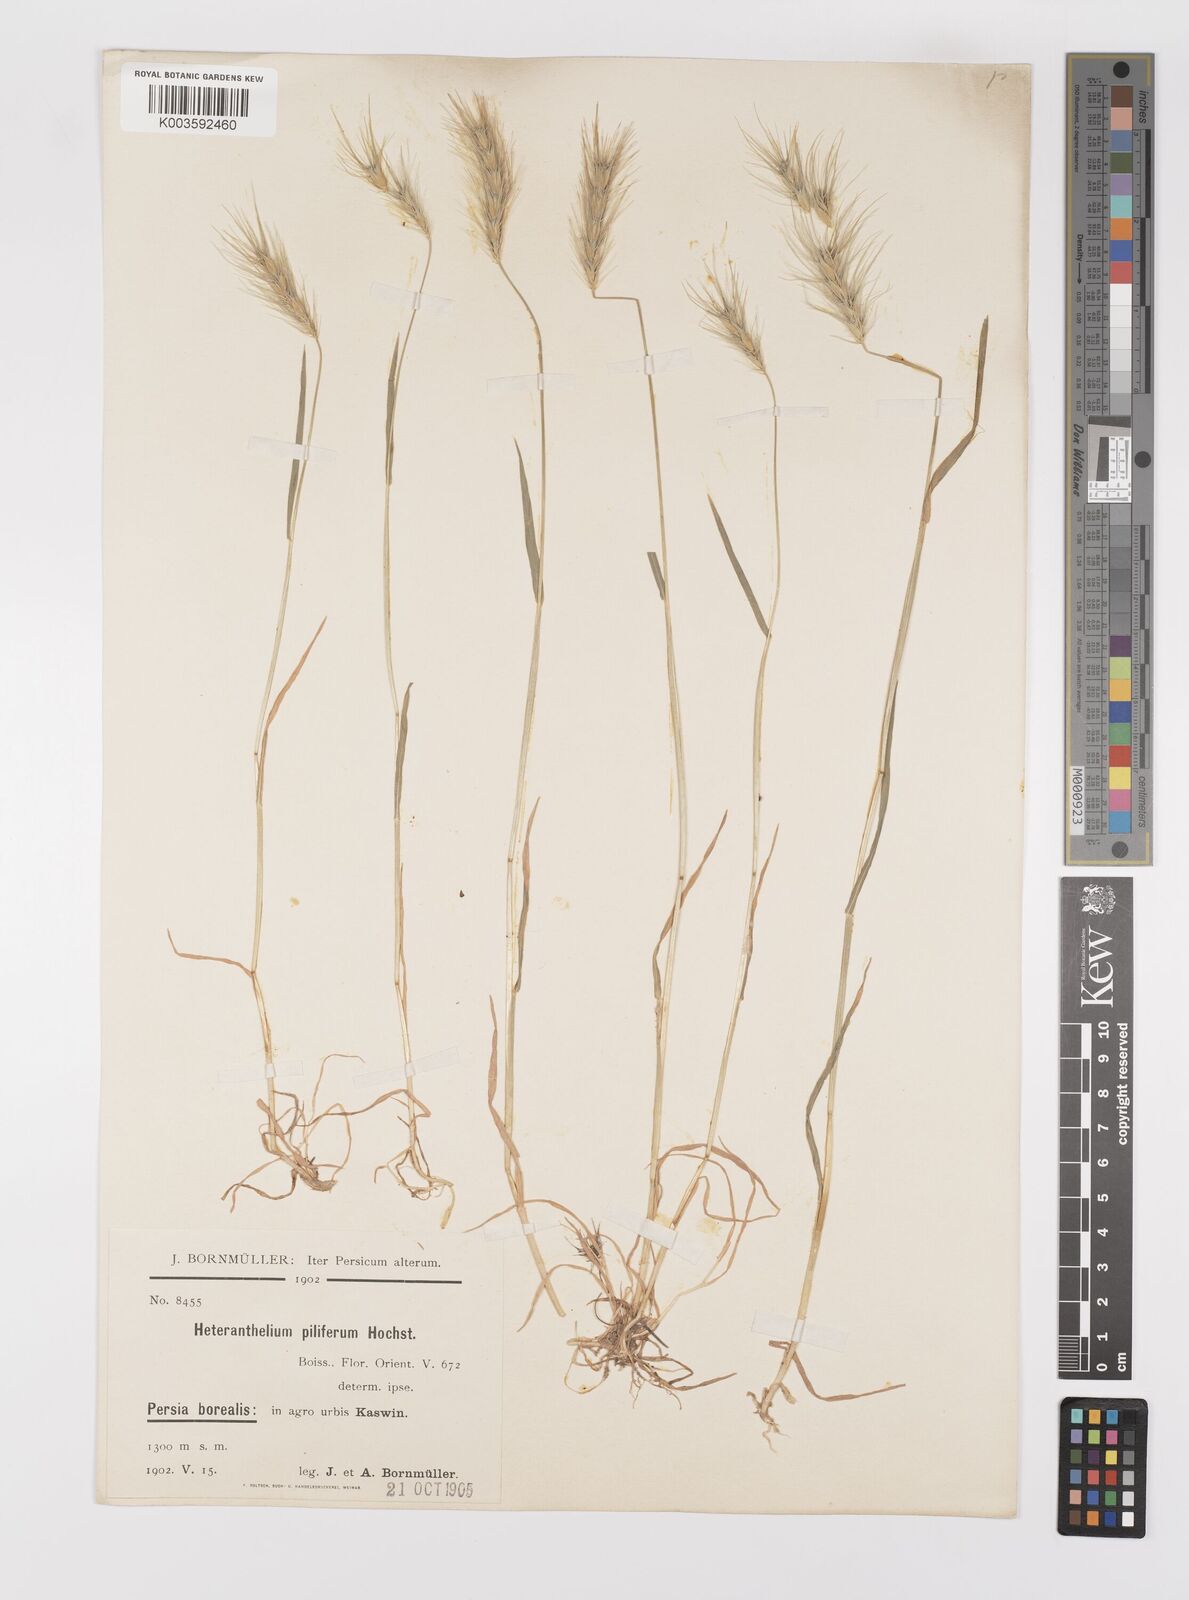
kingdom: Plantae
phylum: Tracheophyta
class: Liliopsida
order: Poales
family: Poaceae
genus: Heteranthelium
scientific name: Heteranthelium piliferum
